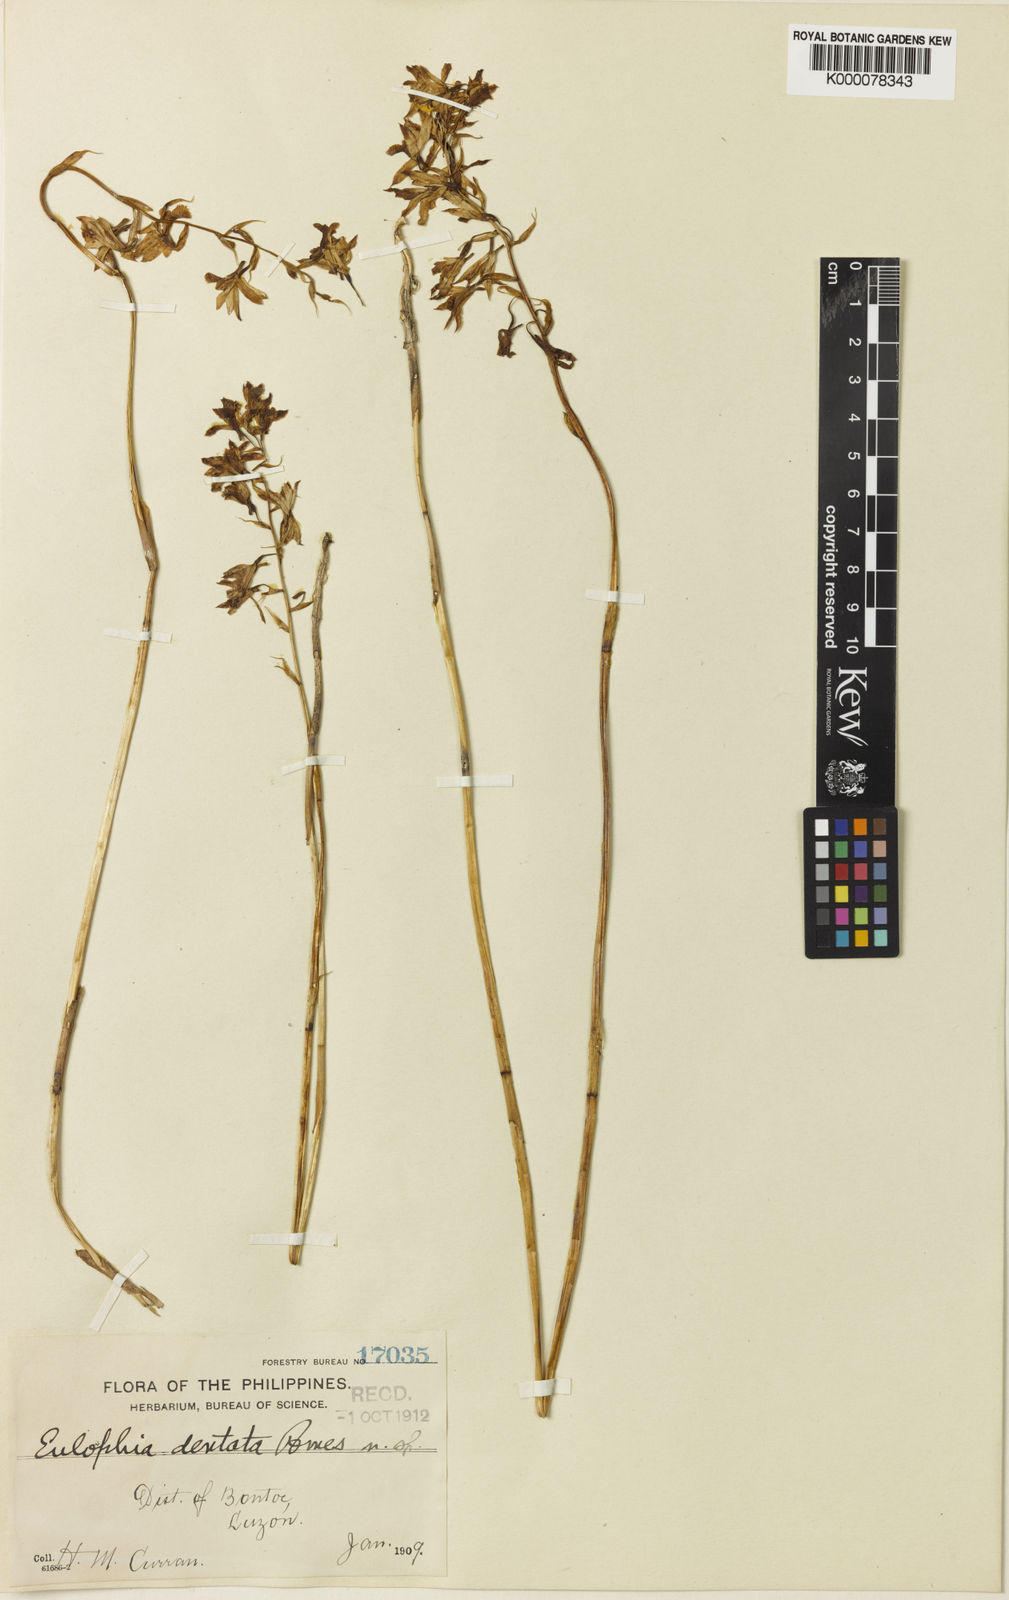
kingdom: Plantae
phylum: Tracheophyta
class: Liliopsida
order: Asparagales
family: Orchidaceae
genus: Eulophia
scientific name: Eulophia dentata
